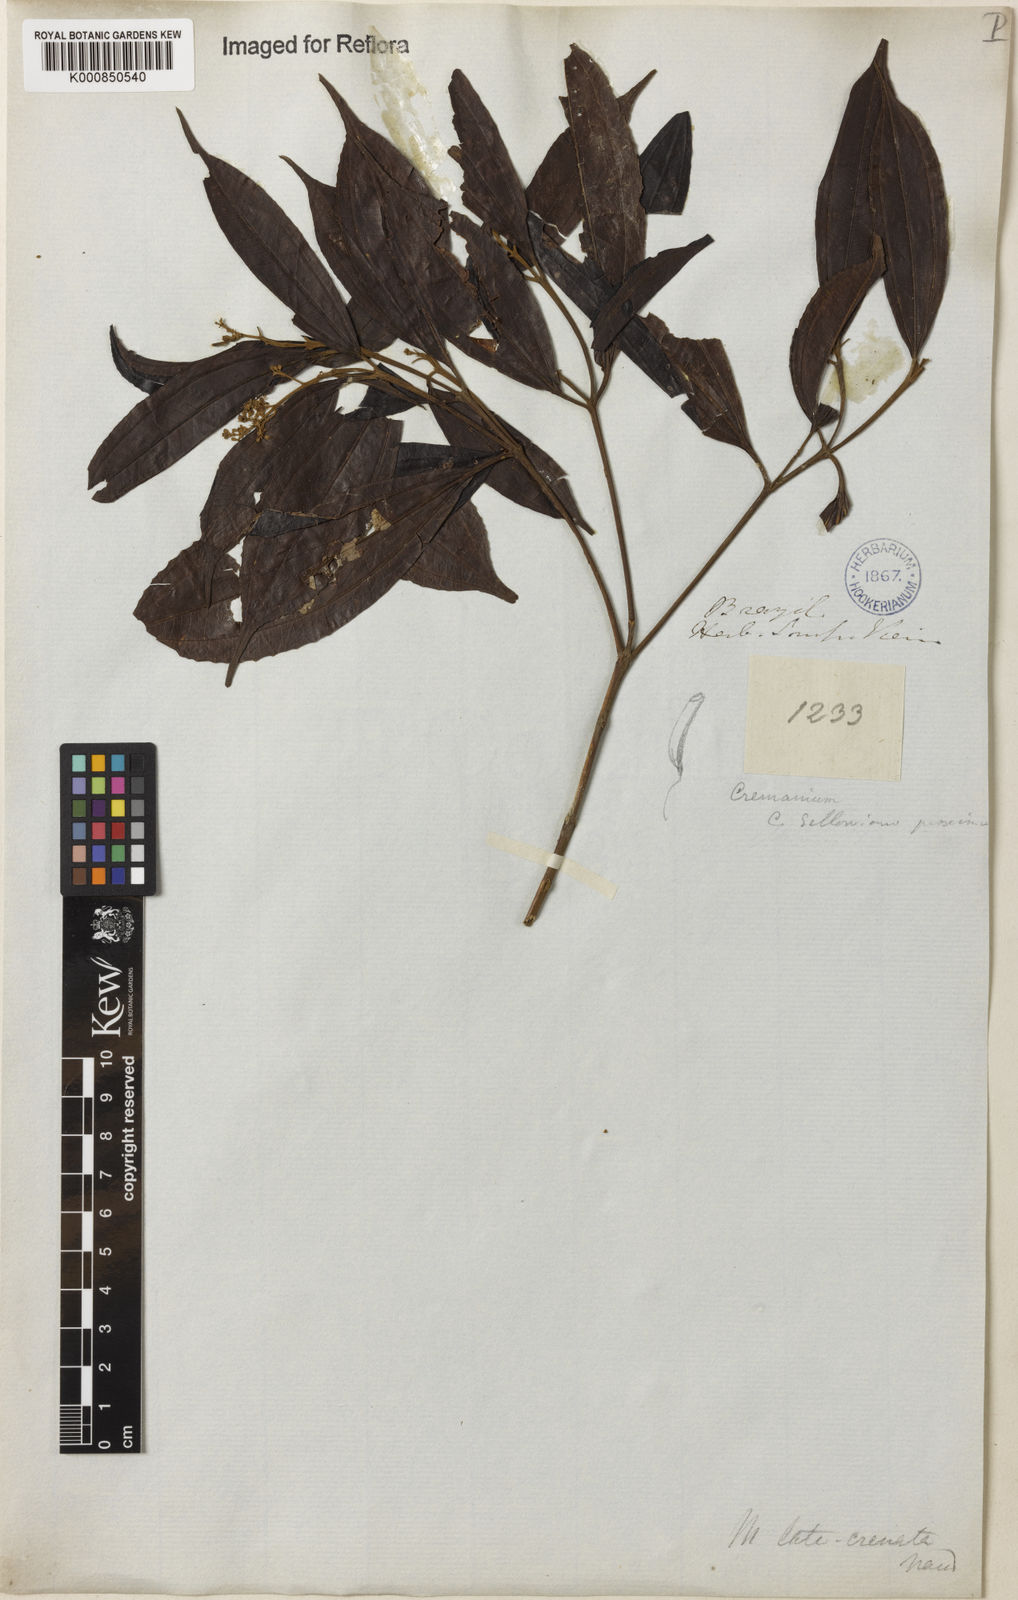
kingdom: Plantae
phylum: Tracheophyta
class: Magnoliopsida
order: Myrtales
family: Melastomataceae
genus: Miconia
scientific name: Miconia
